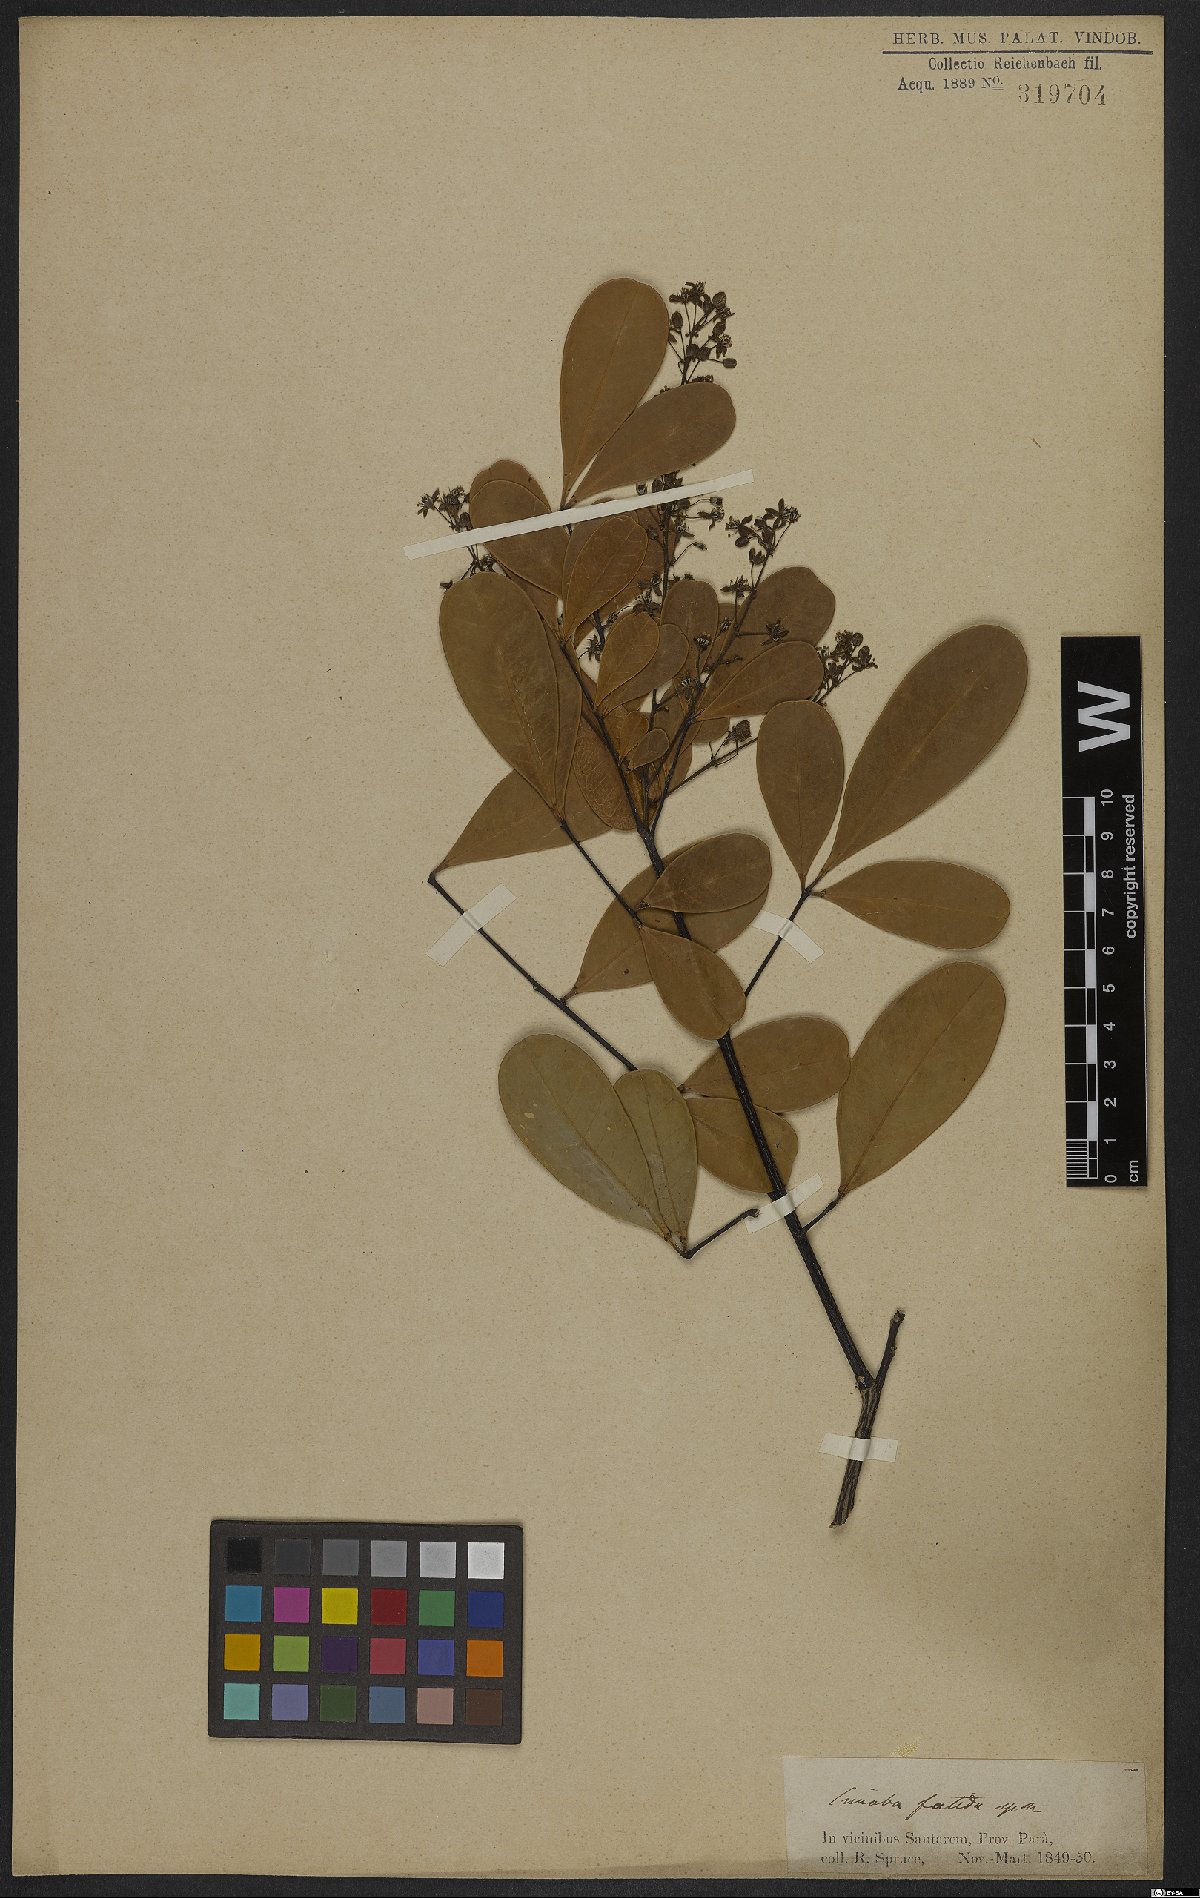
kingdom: Plantae
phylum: Tracheophyta
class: Magnoliopsida
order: Sapindales
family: Simaroubaceae
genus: Simaba
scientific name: Simaba guianensis
